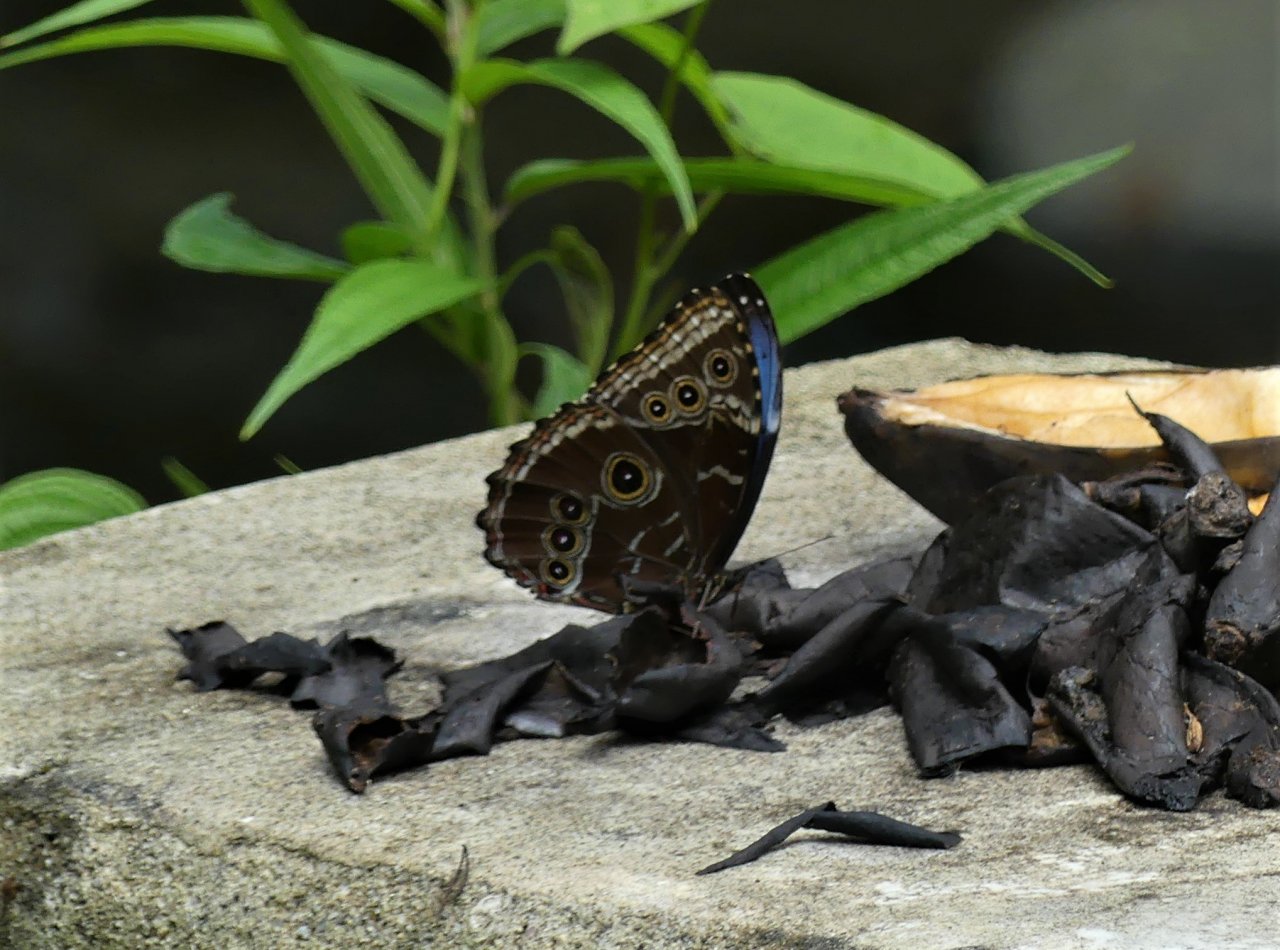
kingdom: Animalia
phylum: Arthropoda
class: Insecta
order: Lepidoptera
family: Nymphalidae
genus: Morpho
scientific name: Morpho helenor
